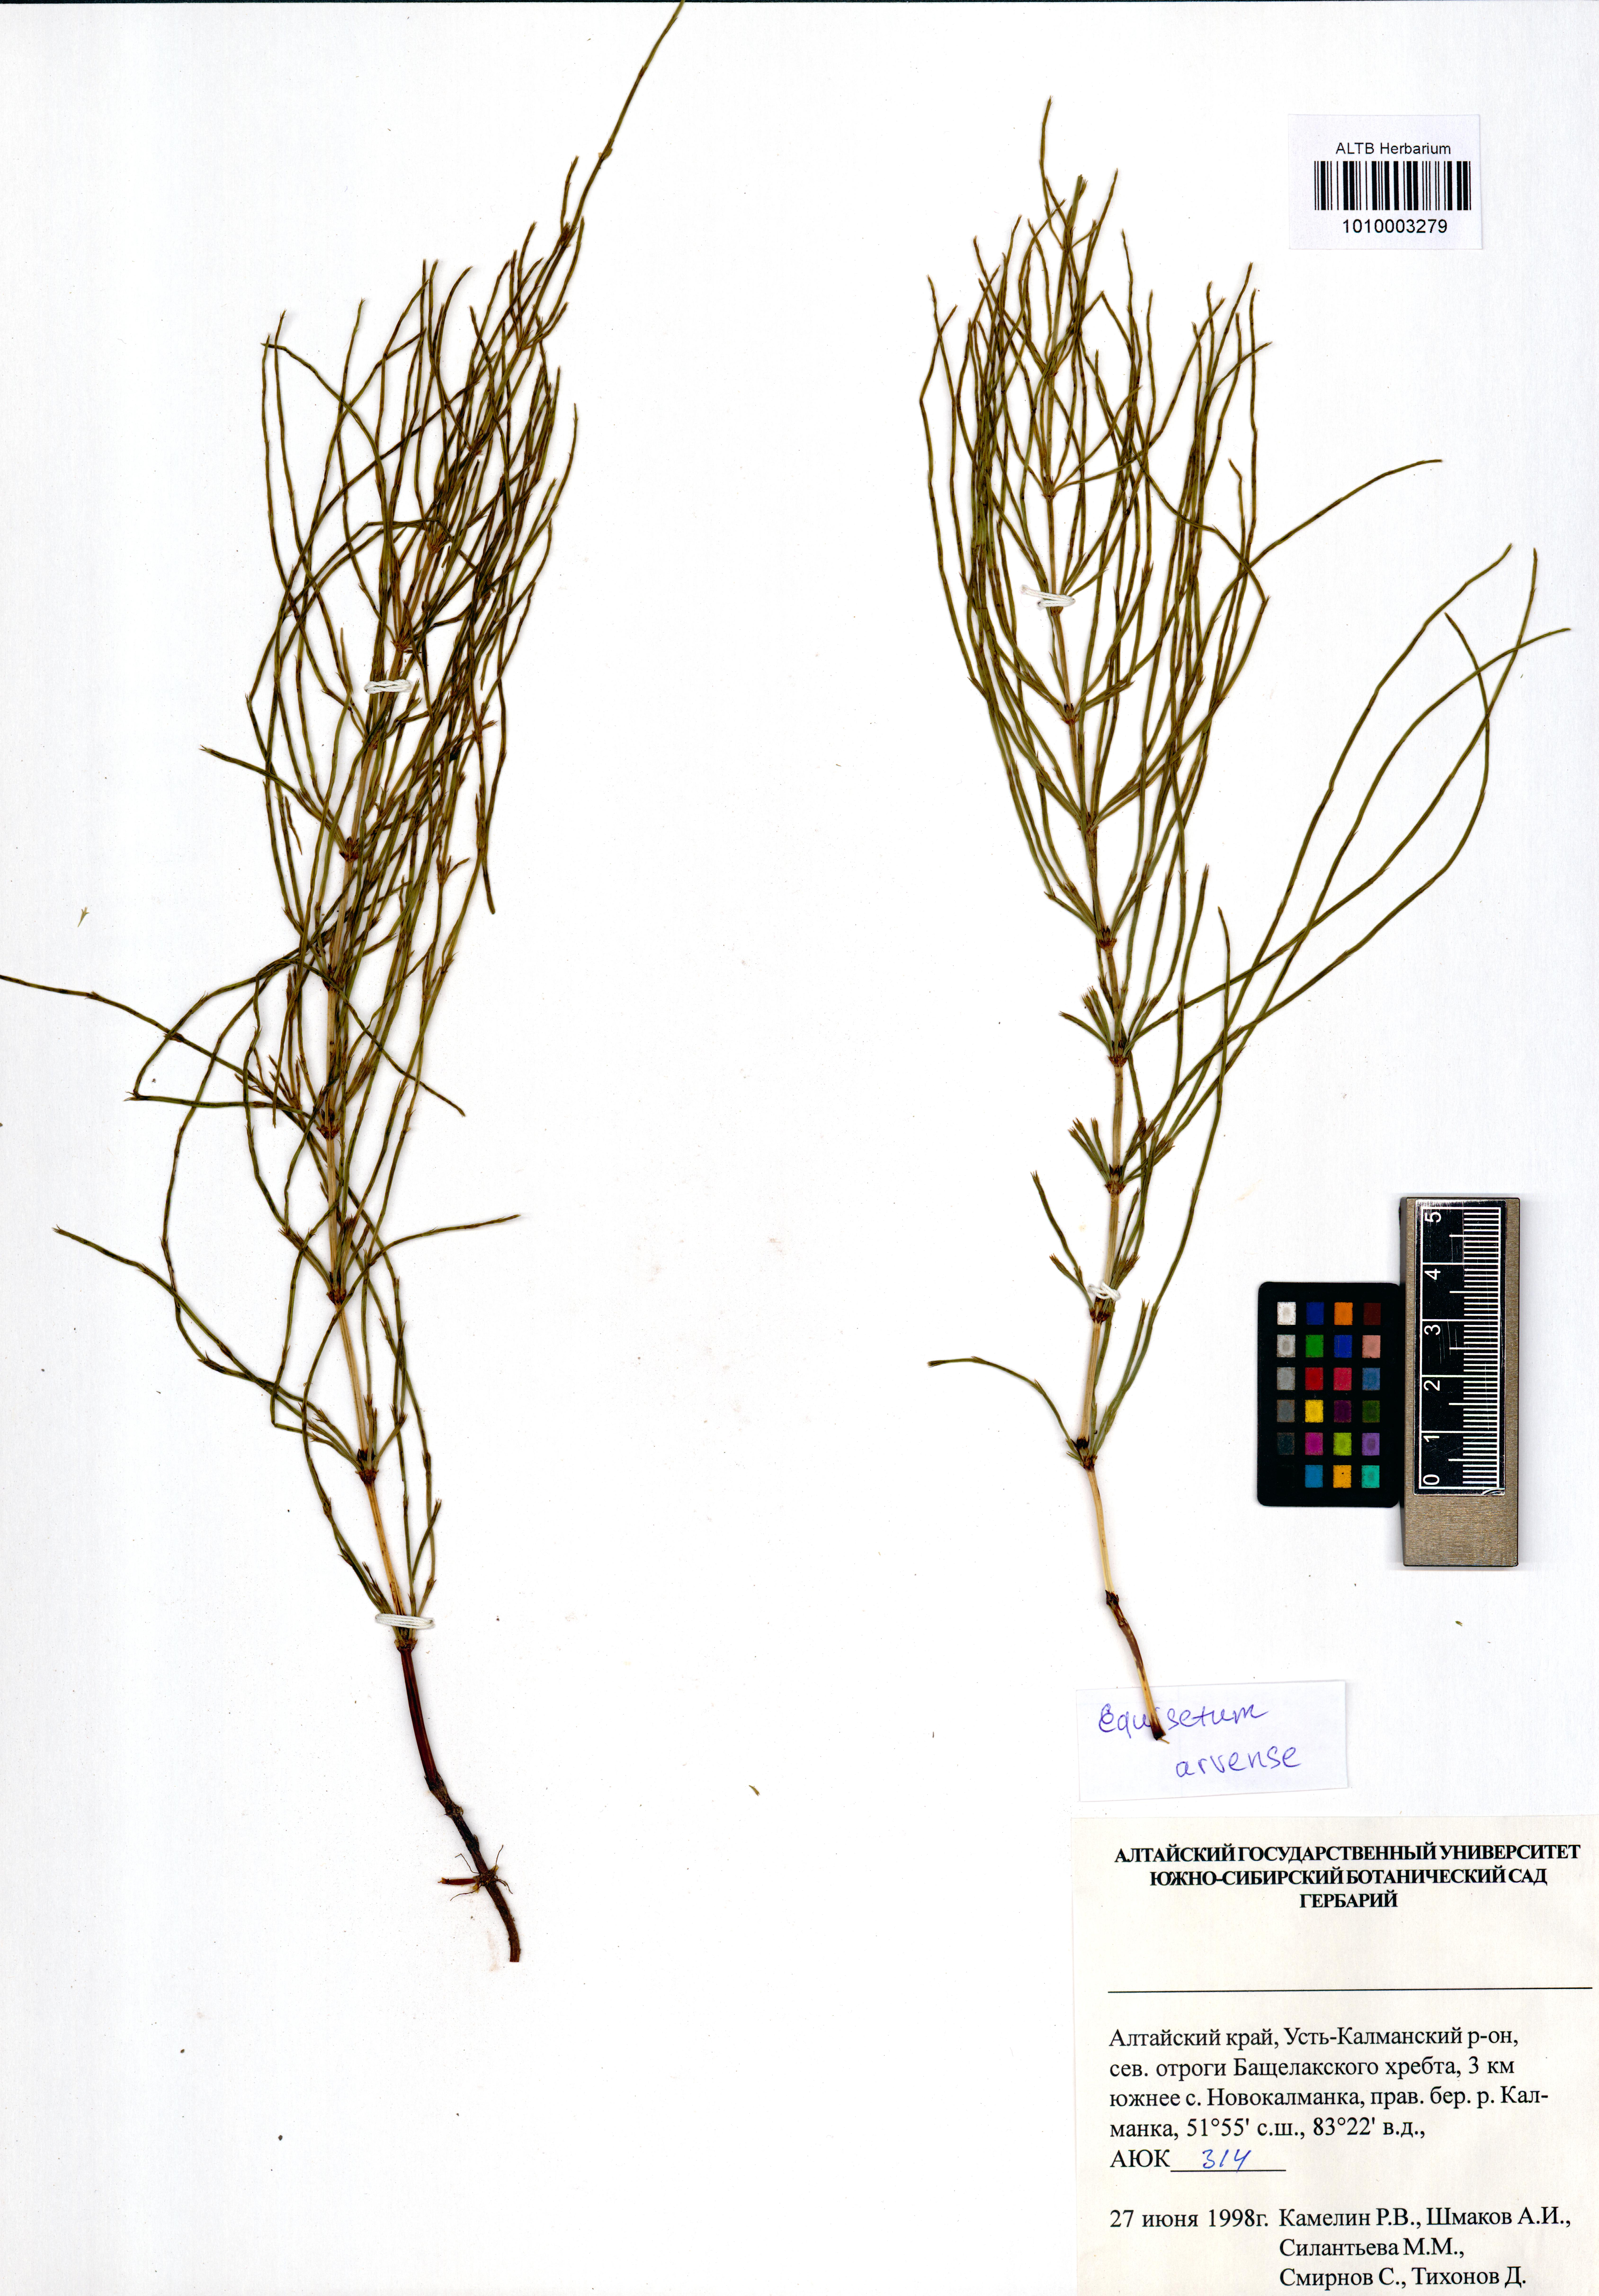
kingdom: Plantae
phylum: Tracheophyta
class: Polypodiopsida
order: Equisetales
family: Equisetaceae
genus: Equisetum
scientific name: Equisetum arvense
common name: Field horsetail
